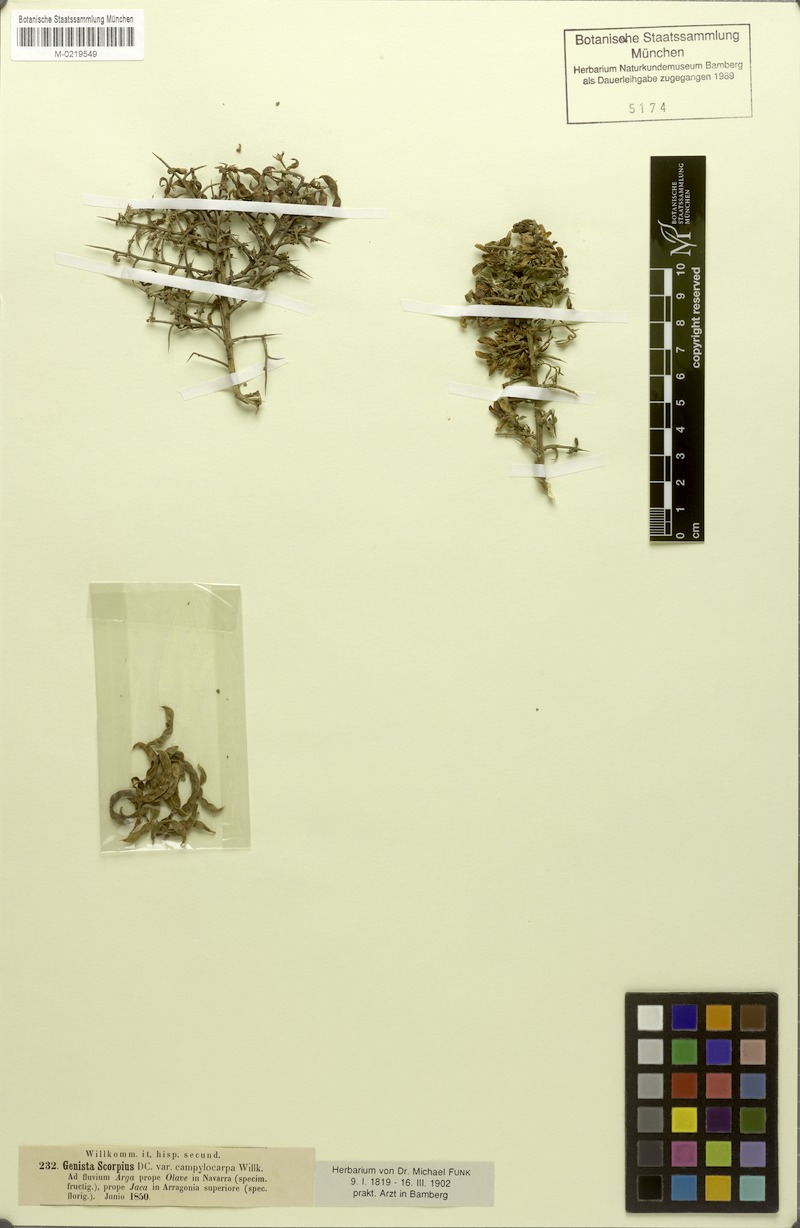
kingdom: Plantae
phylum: Tracheophyta
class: Magnoliopsida
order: Fabales
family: Fabaceae
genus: Genista
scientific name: Genista scorpius
